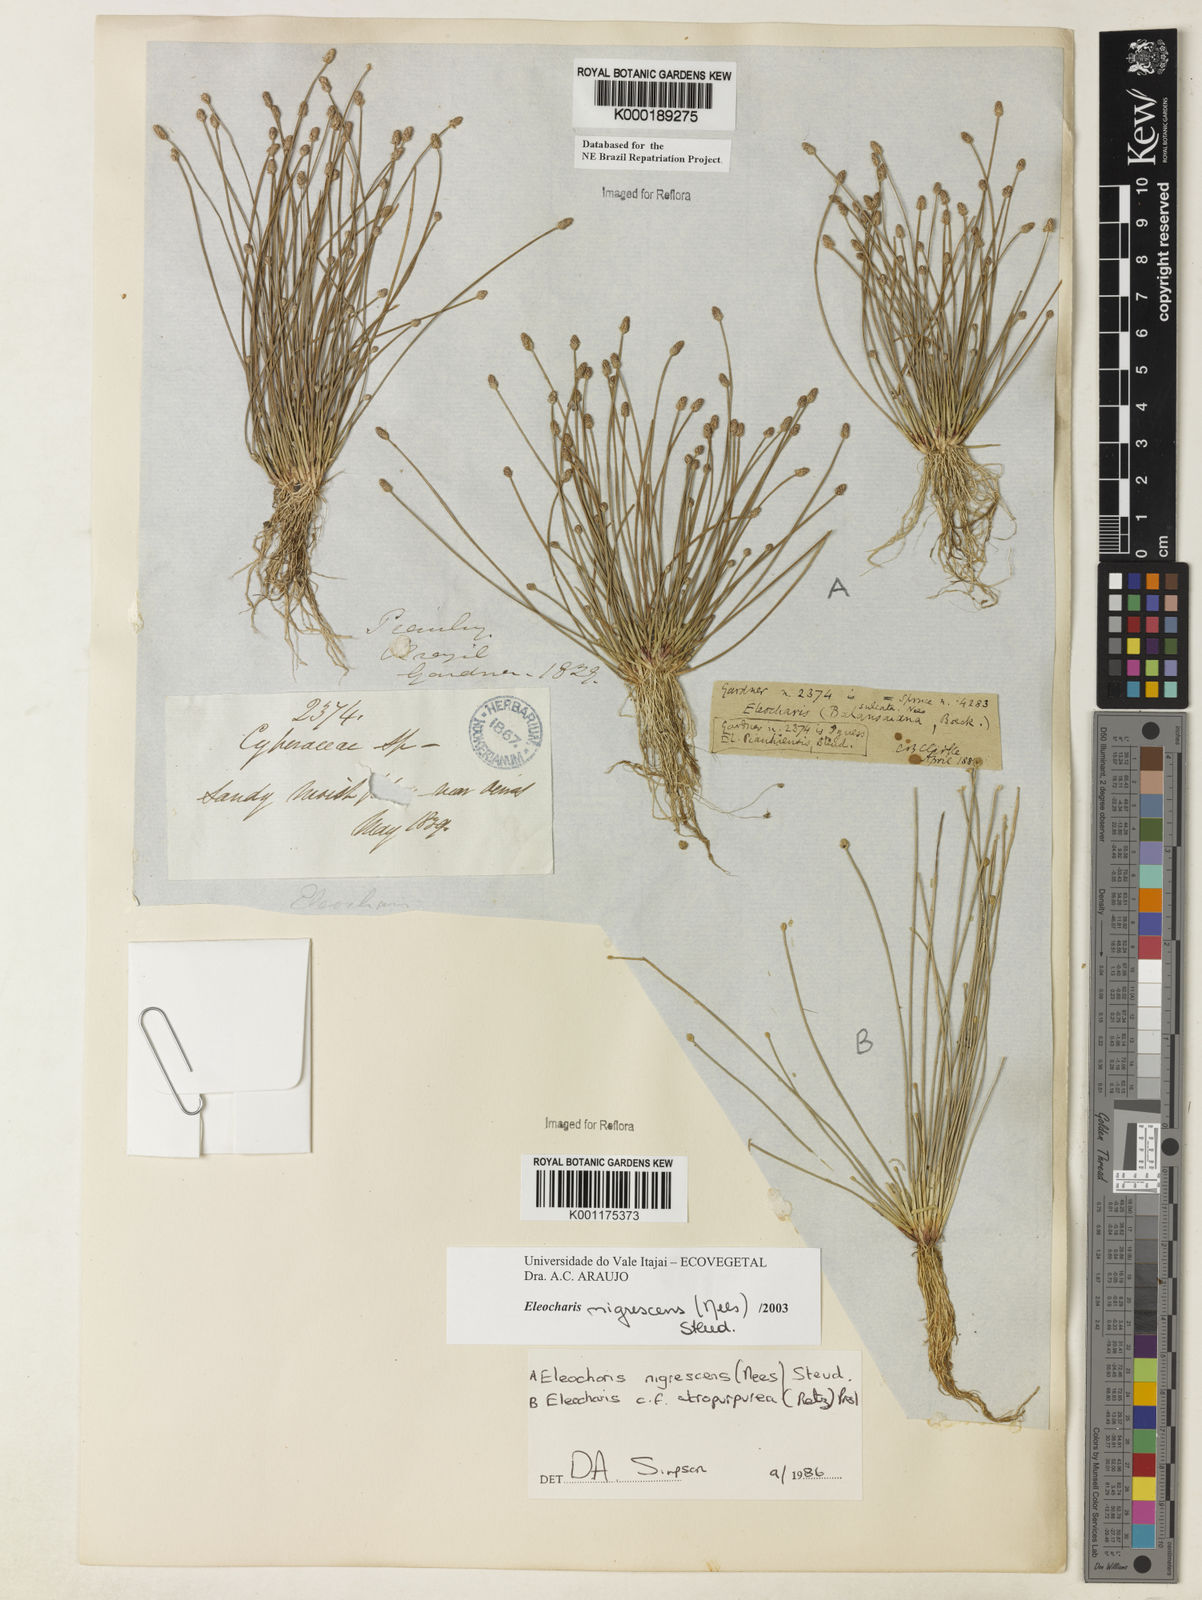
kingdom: Plantae
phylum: Tracheophyta
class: Liliopsida
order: Poales
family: Cyperaceae
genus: Eleocharis
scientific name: Eleocharis
